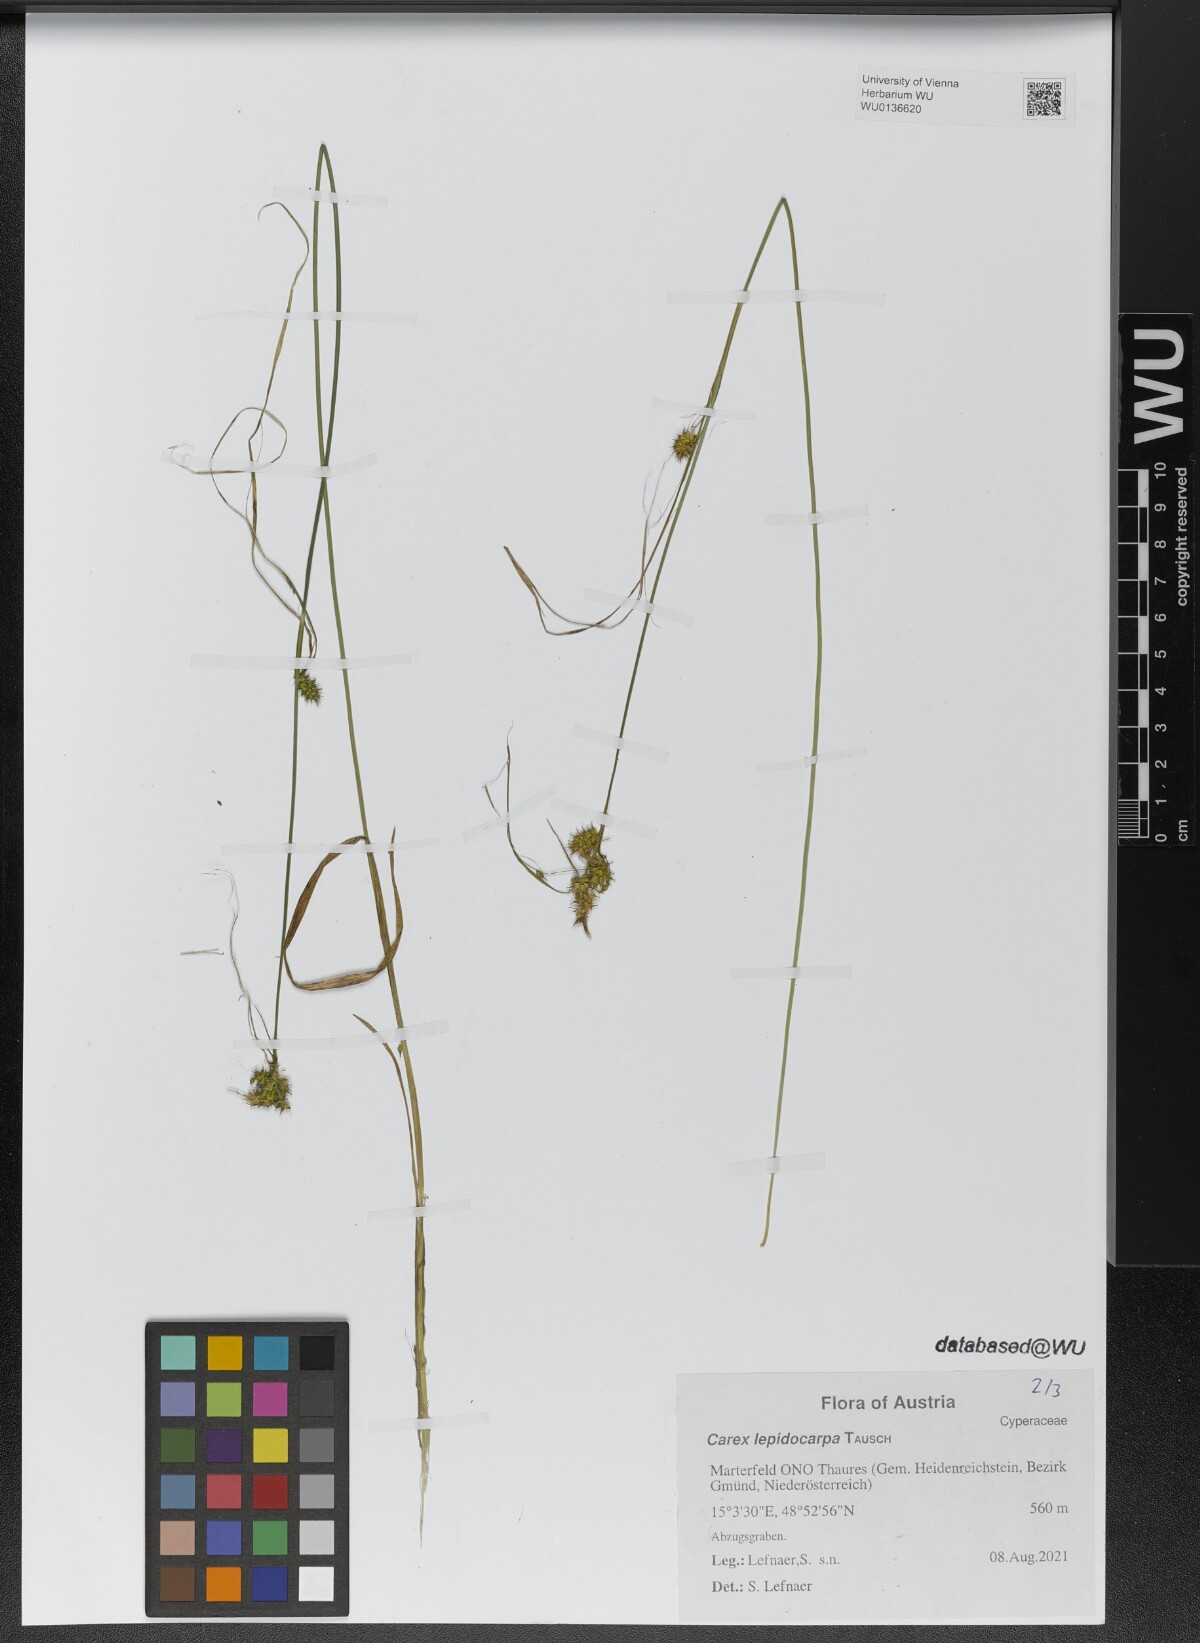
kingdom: Plantae
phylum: Tracheophyta
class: Liliopsida
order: Poales
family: Cyperaceae
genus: Carex
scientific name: Carex lepidocarpa
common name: Long-stalked yellow-sedge
